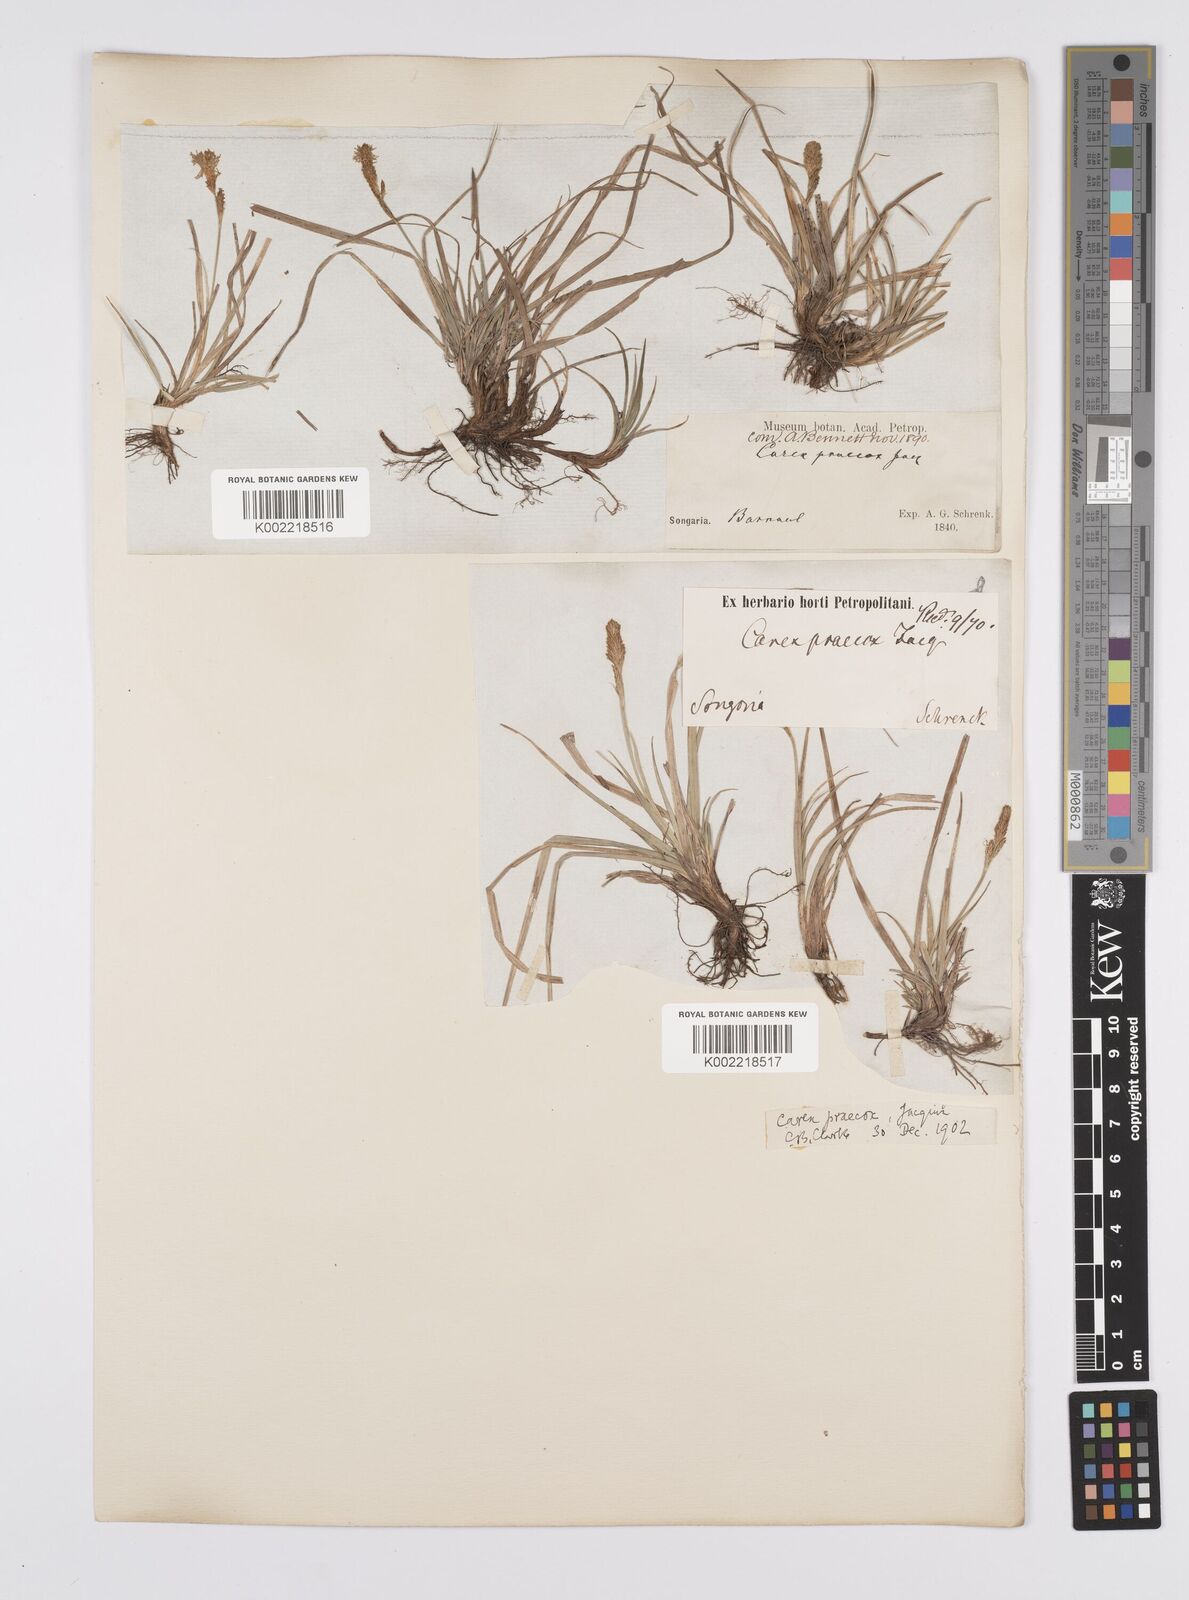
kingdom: Plantae
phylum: Tracheophyta
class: Liliopsida
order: Poales
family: Cyperaceae
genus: Carex
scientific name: Carex caryophyllea
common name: Spring sedge
